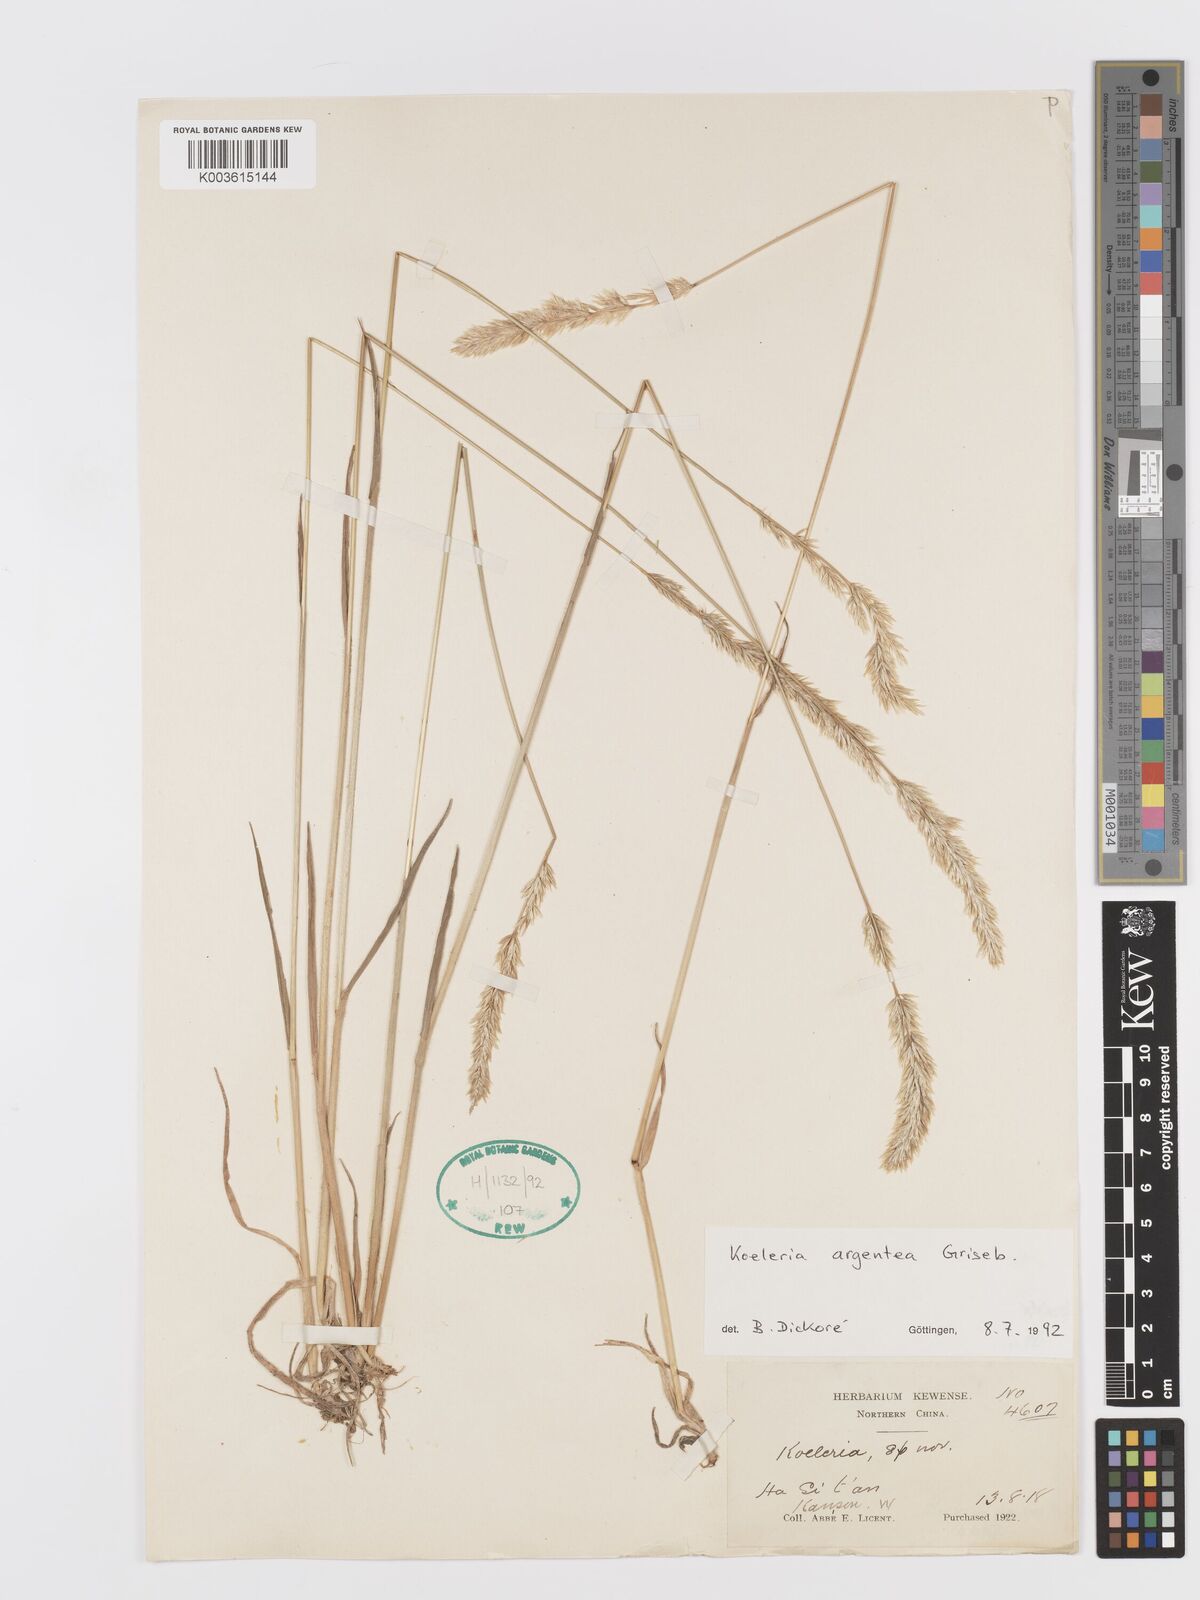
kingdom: Plantae
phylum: Tracheophyta
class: Liliopsida
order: Poales
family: Poaceae
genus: Koeleria
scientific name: Koeleria argentea
